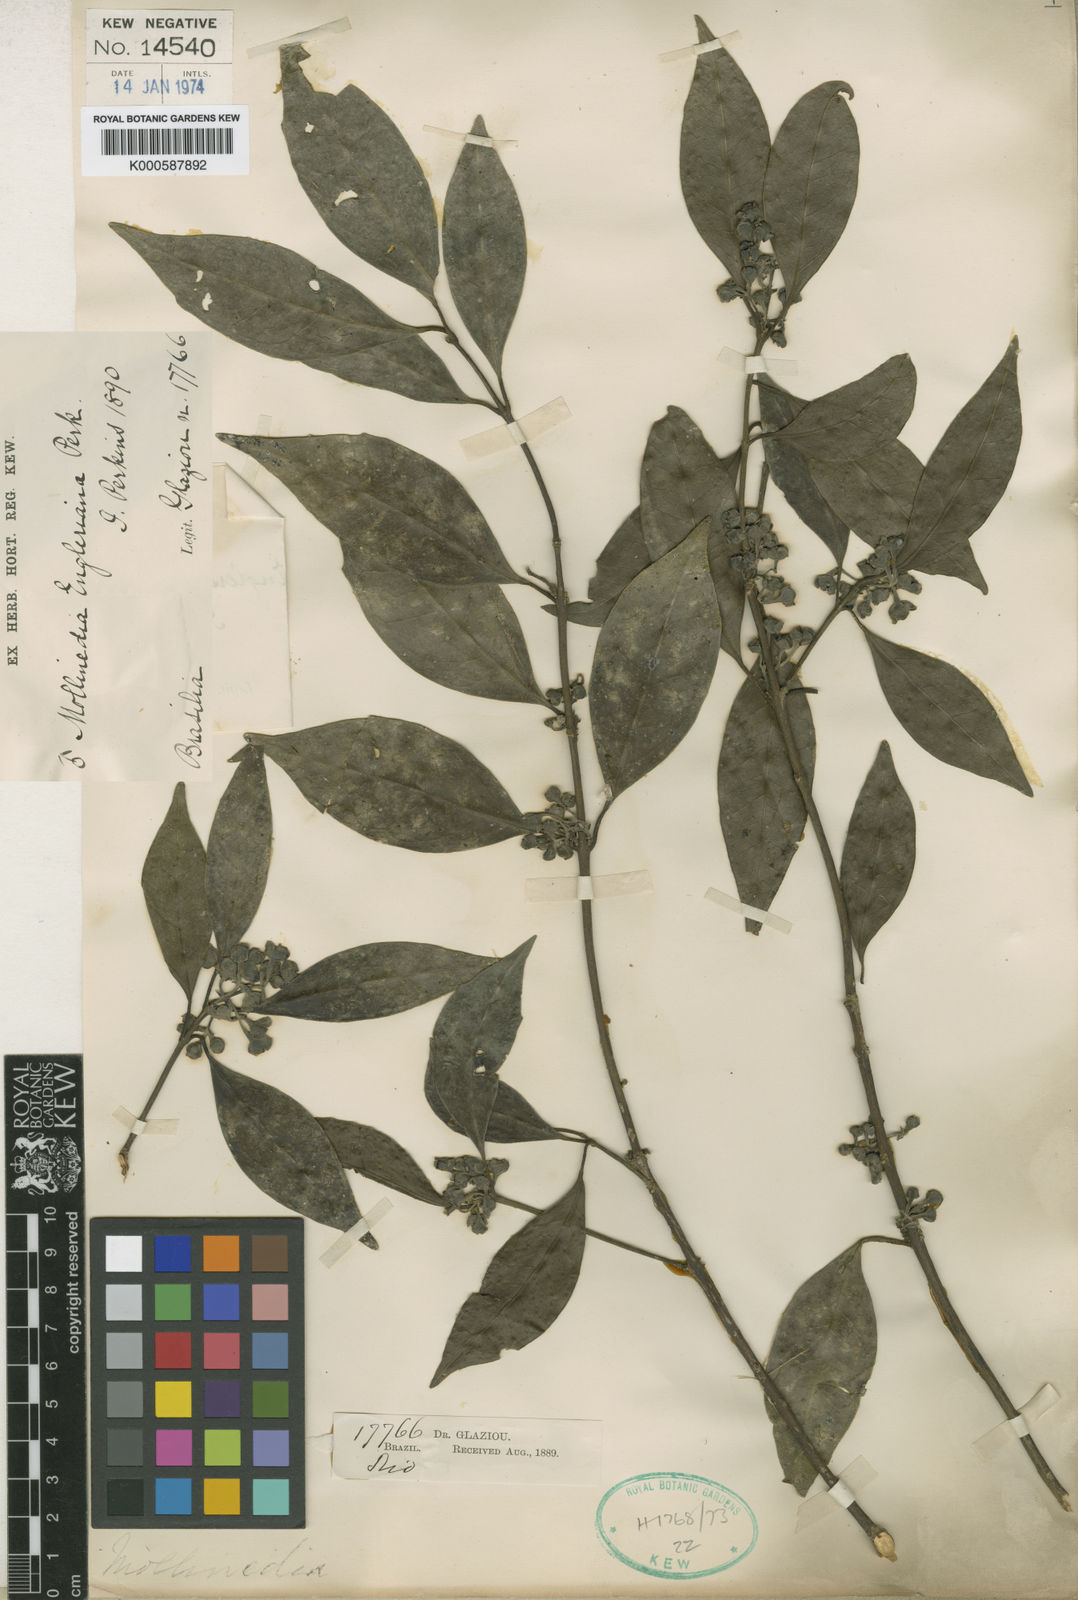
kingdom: Plantae
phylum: Tracheophyta
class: Magnoliopsida
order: Laurales
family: Monimiaceae
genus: Mollinedia
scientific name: Mollinedia engleriana
